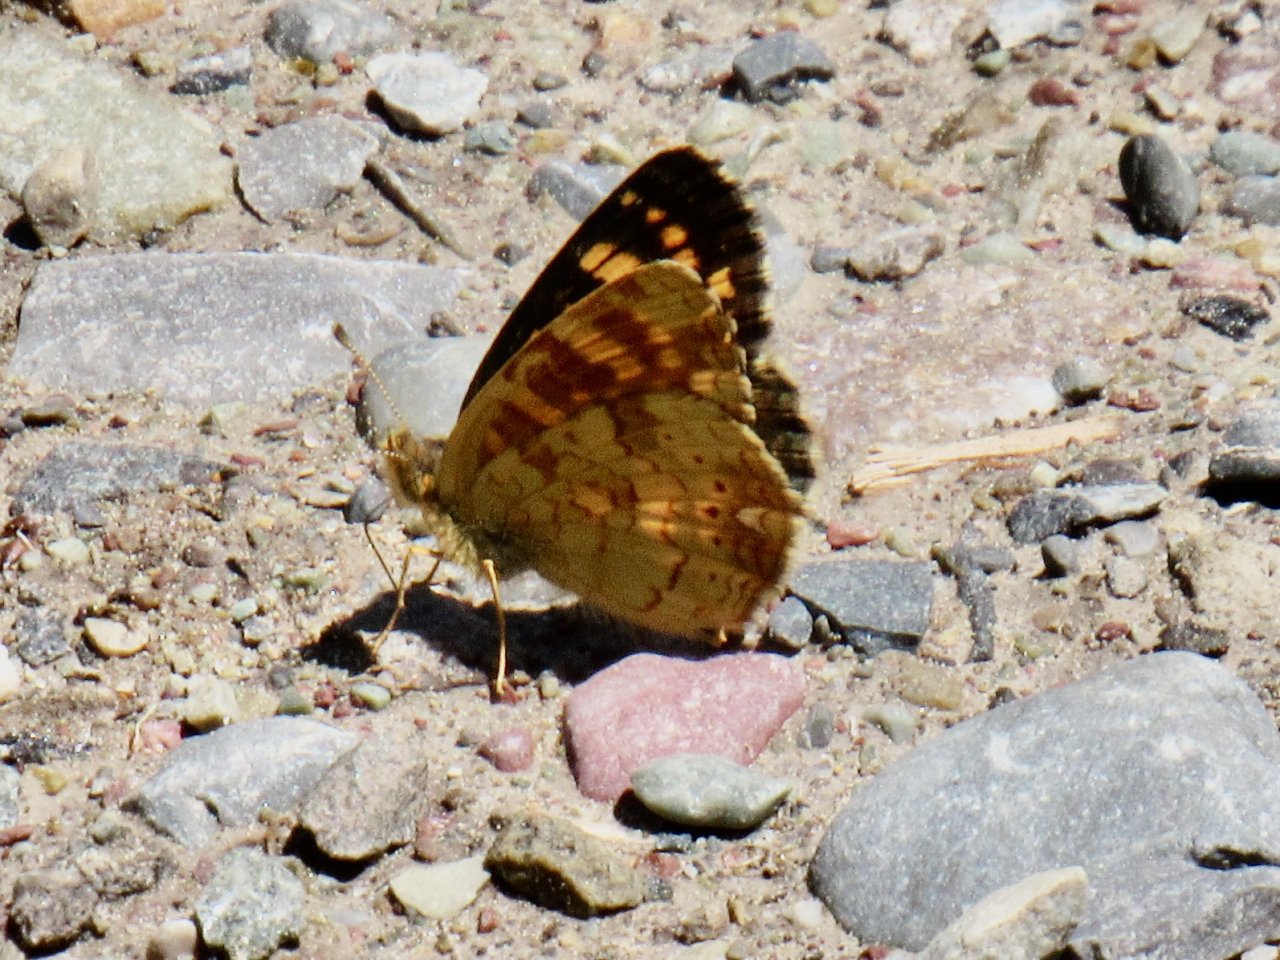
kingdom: Animalia
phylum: Arthropoda
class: Insecta
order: Lepidoptera
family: Nymphalidae
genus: Phyciodes
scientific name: Phyciodes tharos
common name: Field Crescent
